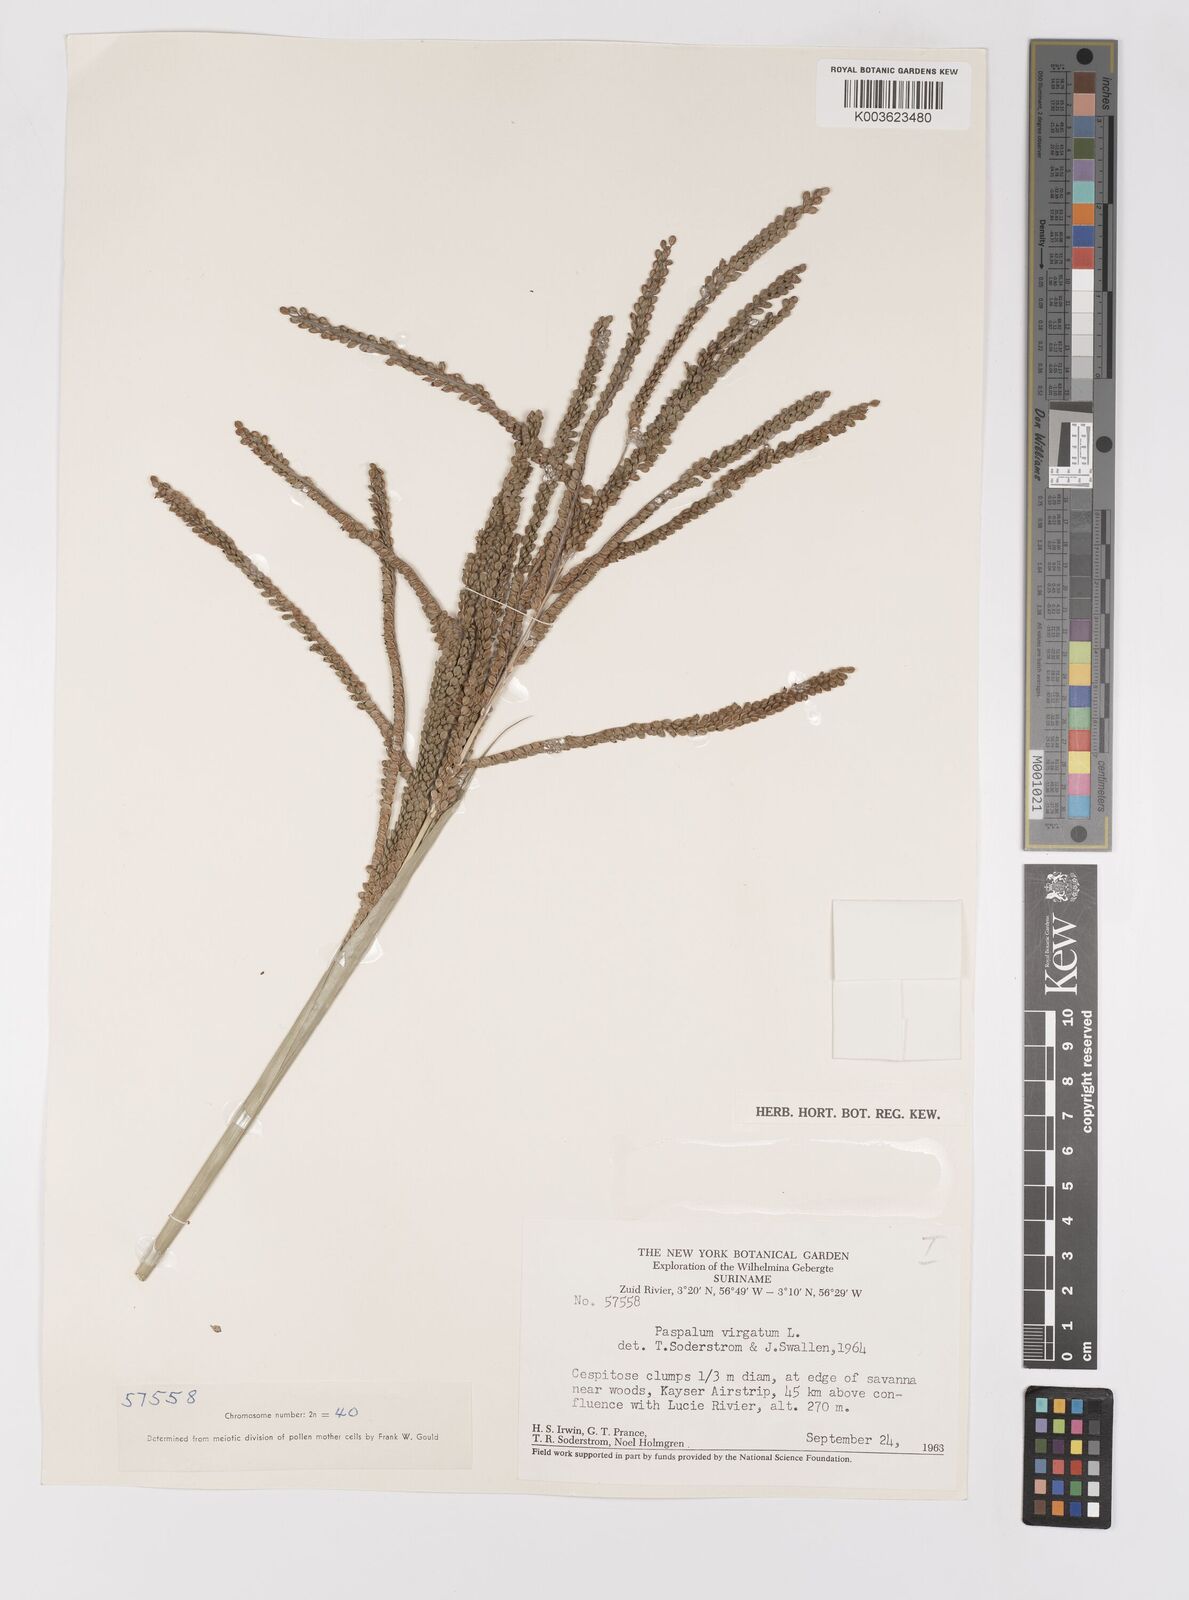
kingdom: Plantae
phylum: Tracheophyta
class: Liliopsida
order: Poales
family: Poaceae
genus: Paspalum
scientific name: Paspalum virgatum
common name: Talquezal
